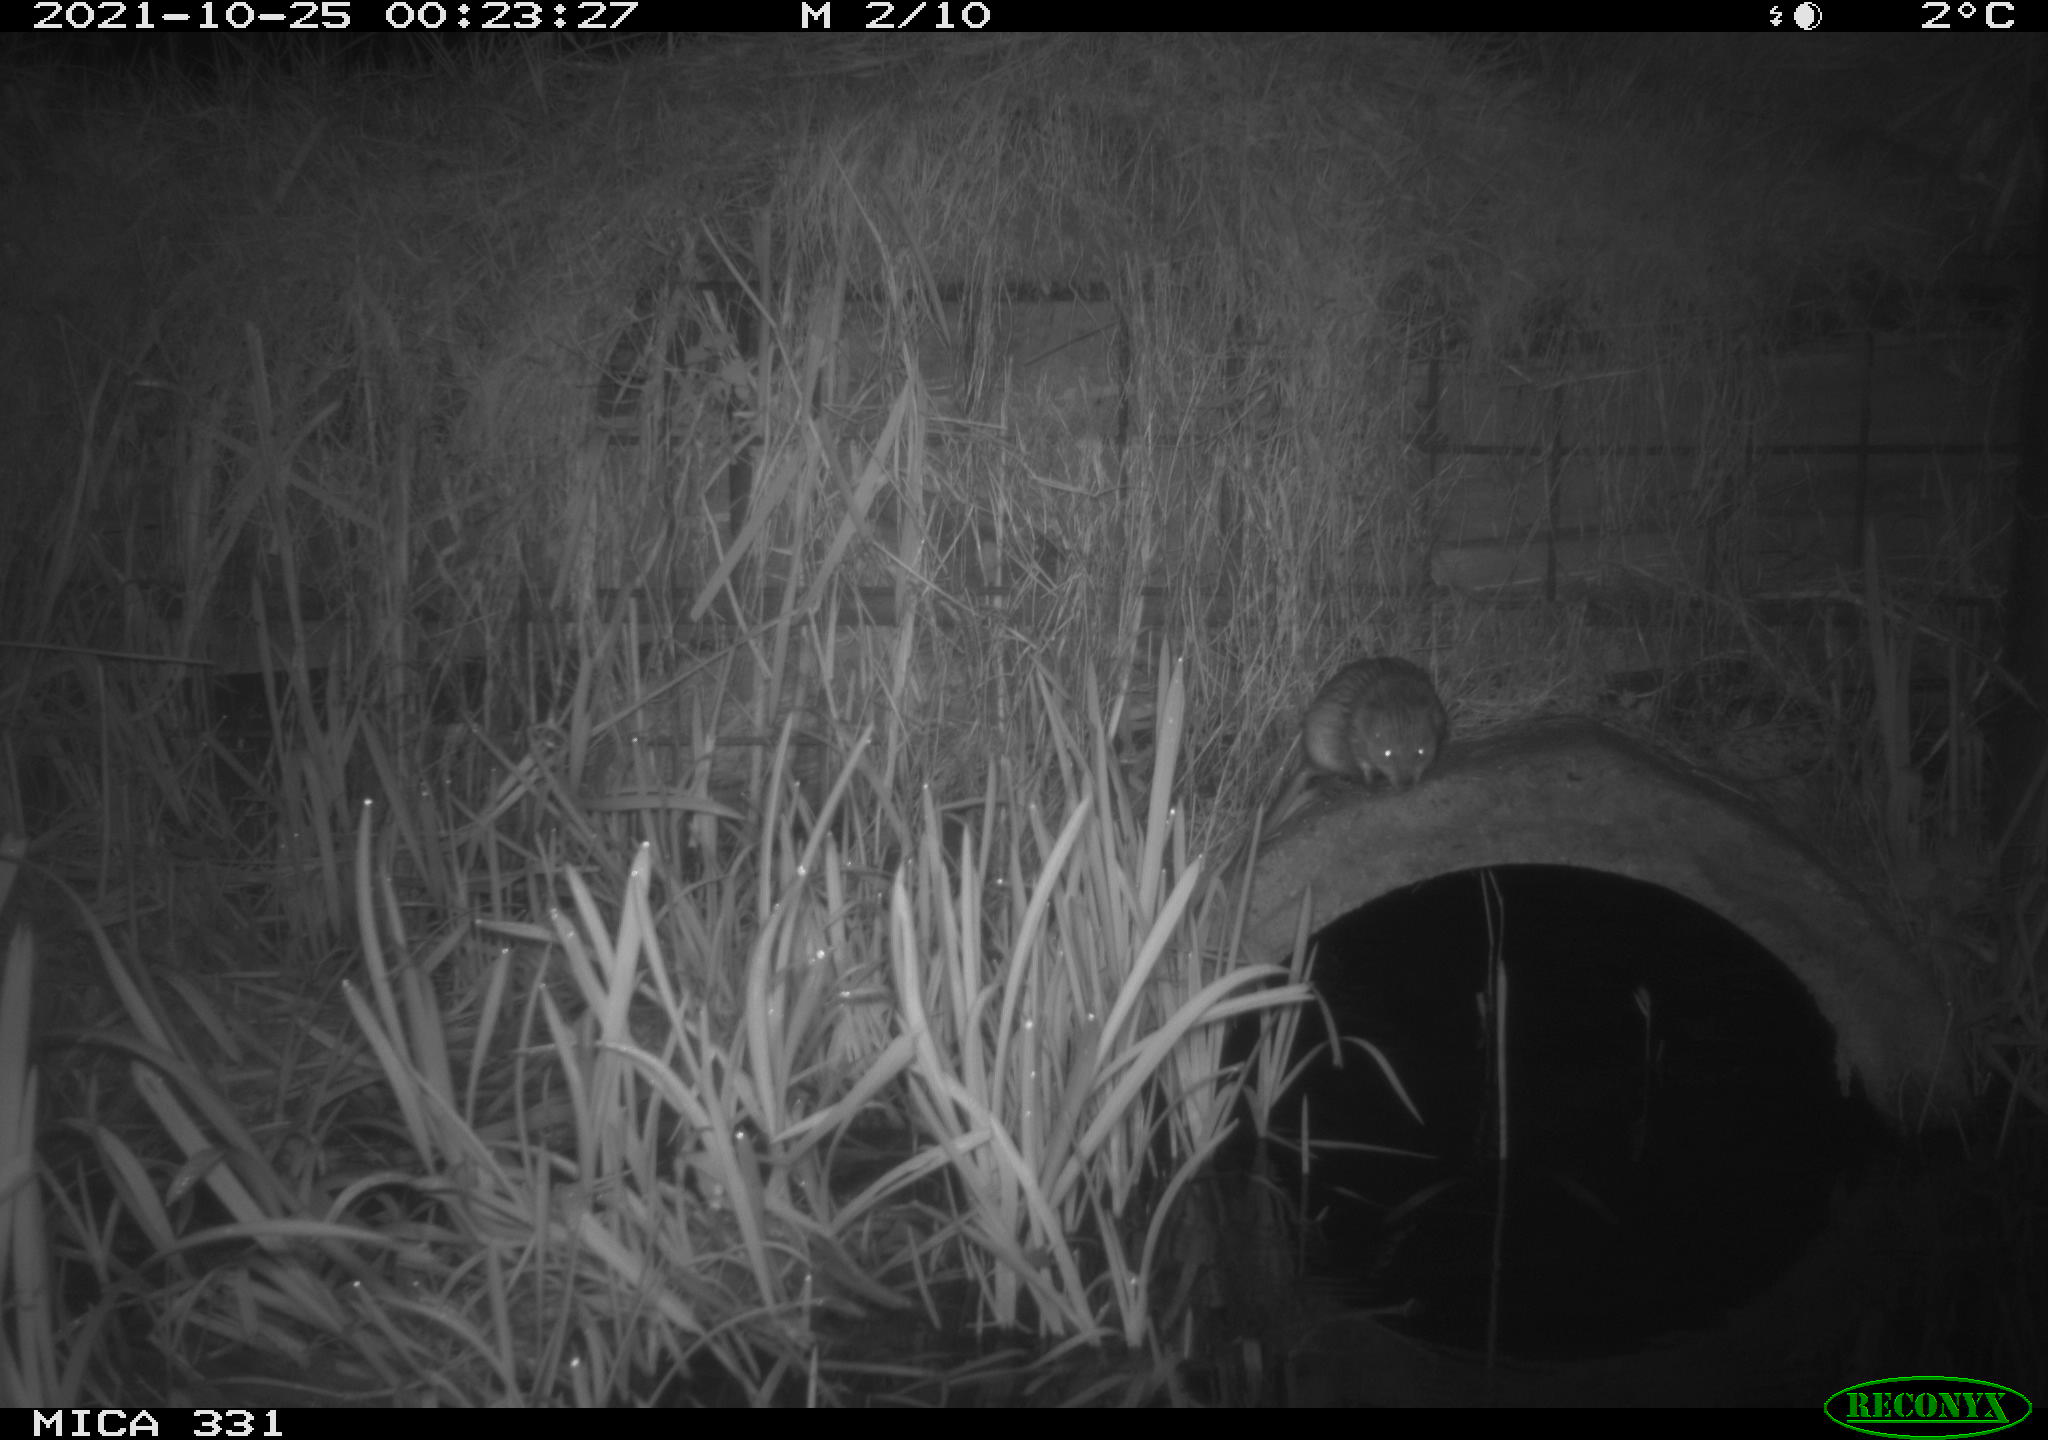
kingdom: Animalia
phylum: Chordata
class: Mammalia
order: Rodentia
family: Muridae
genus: Rattus
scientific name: Rattus norvegicus
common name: Brown rat
